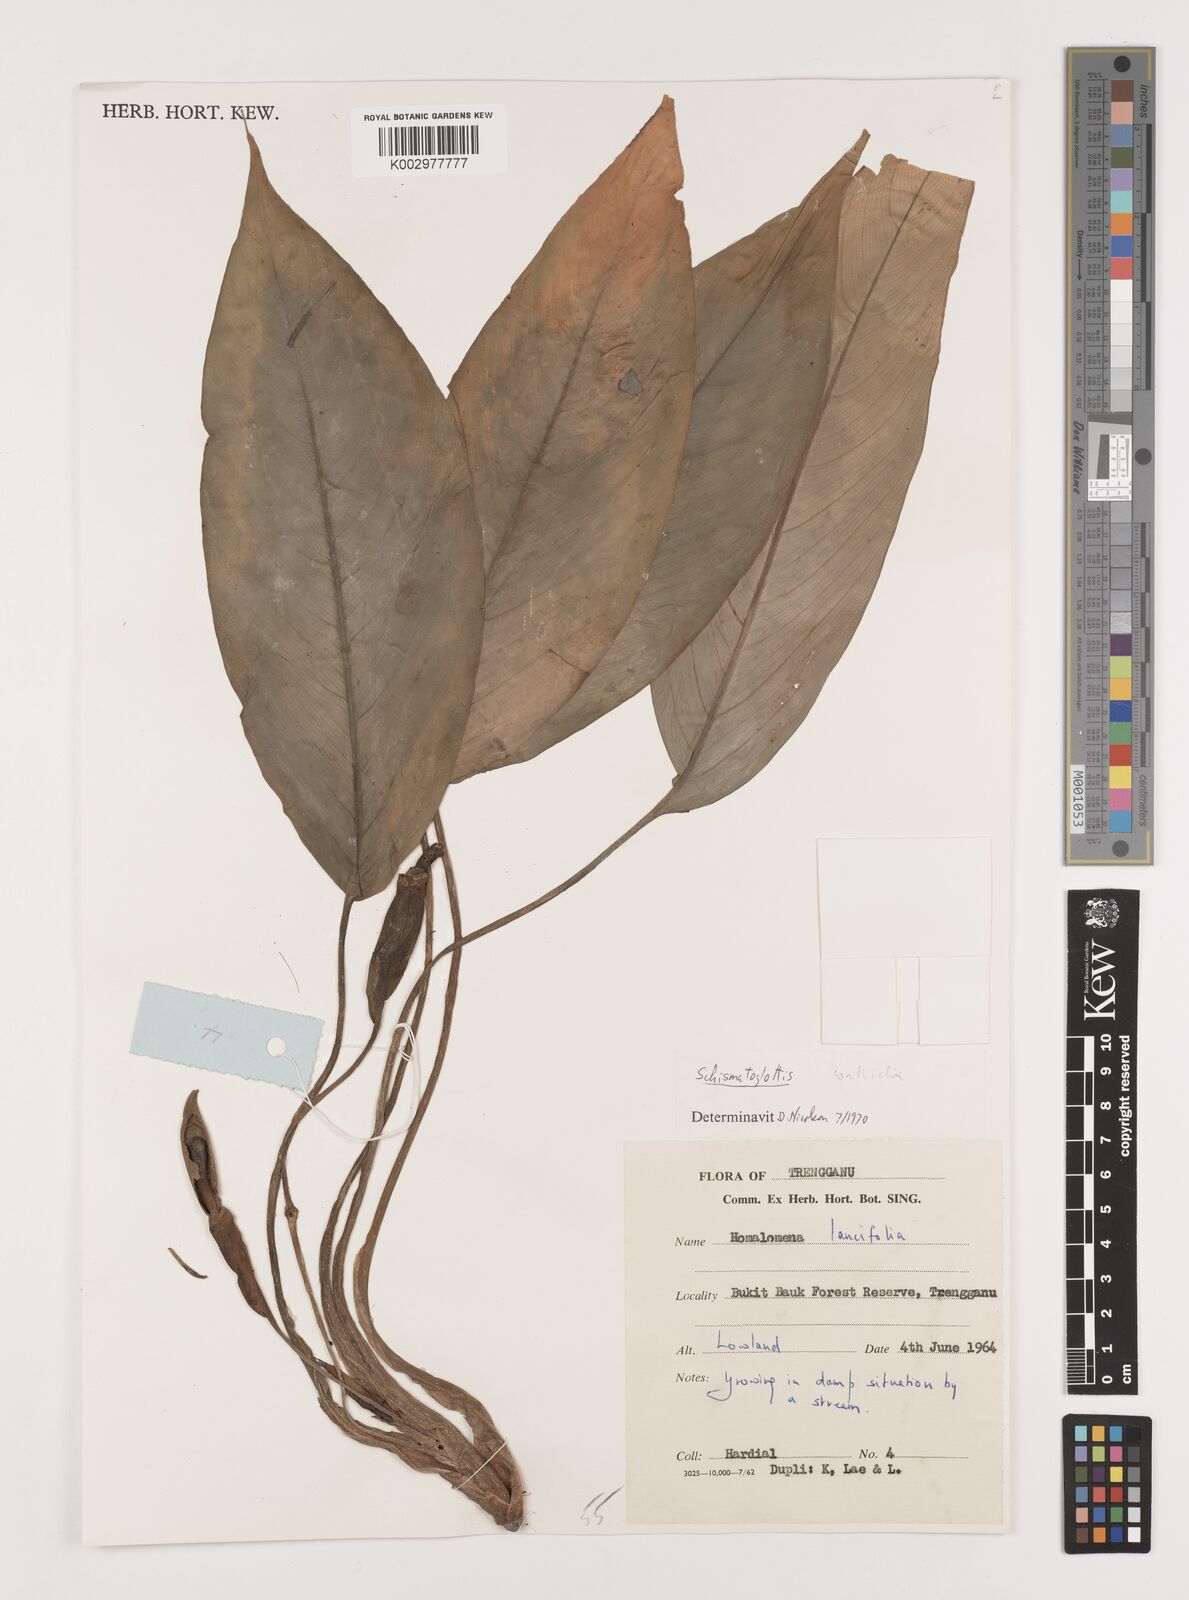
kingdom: Plantae
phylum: Tracheophyta
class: Liliopsida
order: Alismatales
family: Araceae
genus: Schismatoglottis
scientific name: Schismatoglottis wallichii
